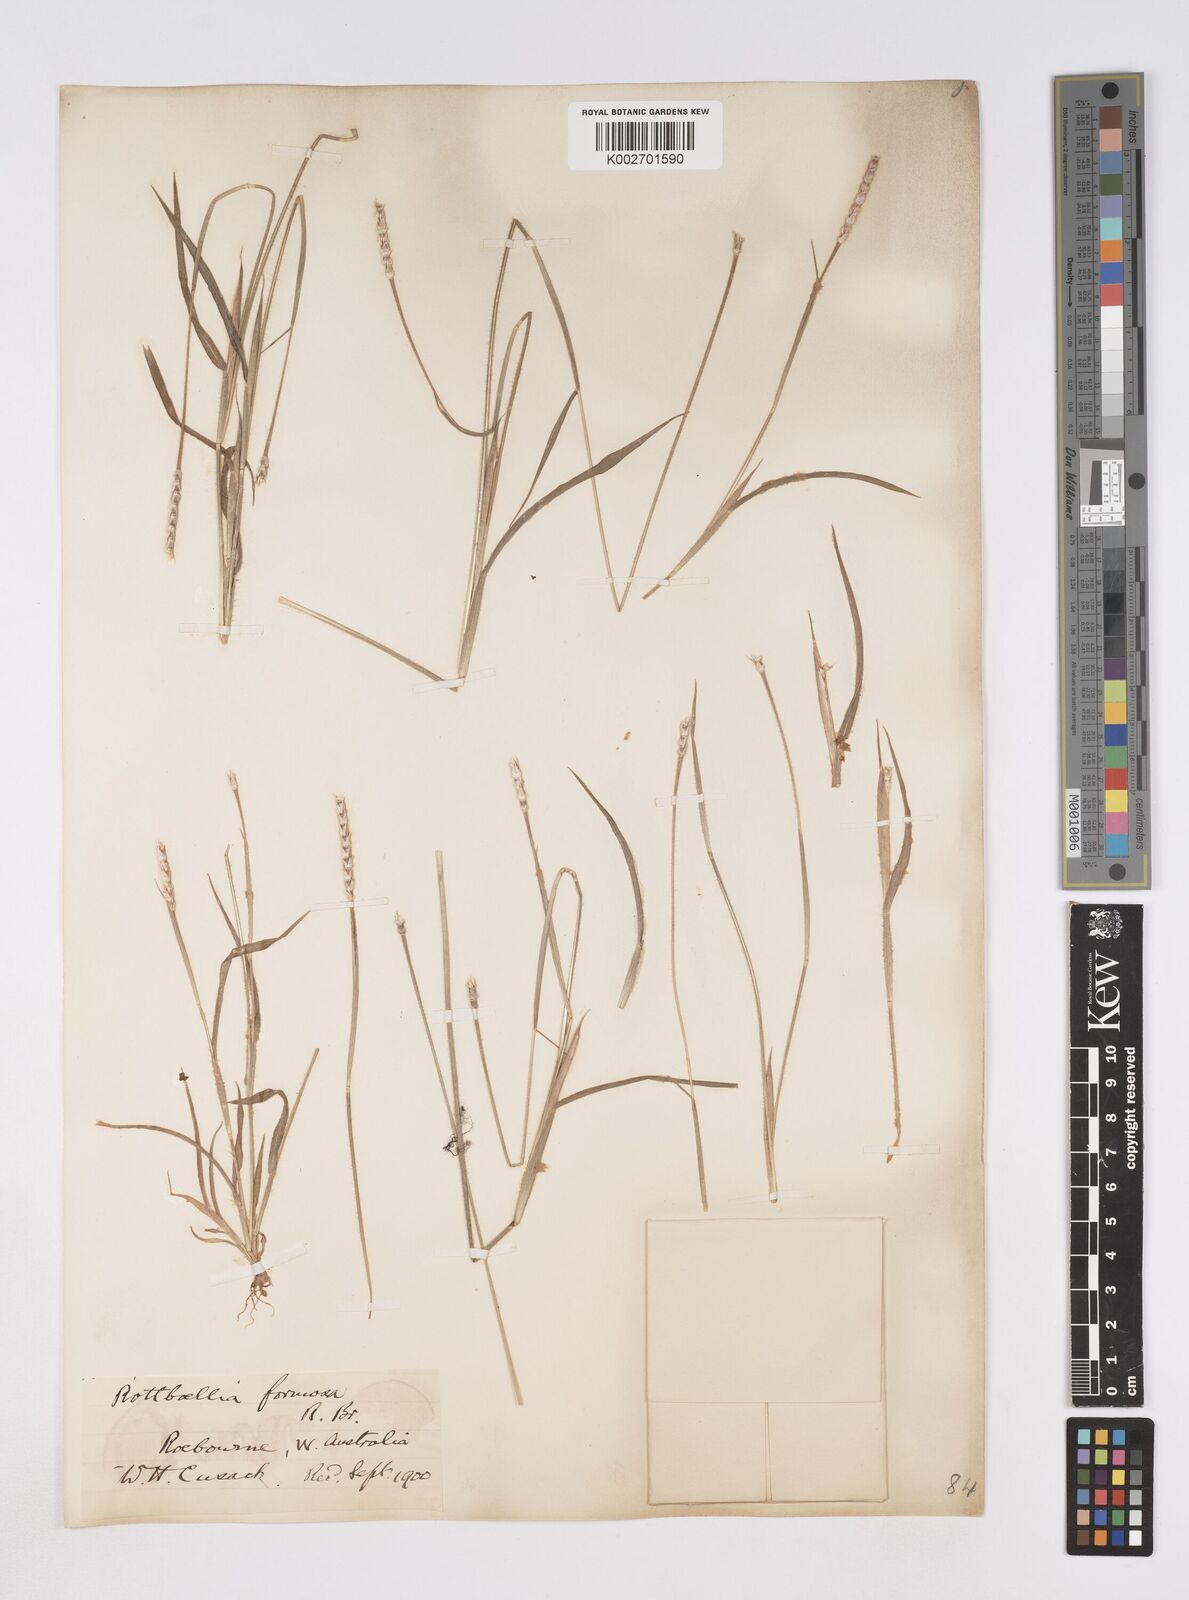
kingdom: Plantae
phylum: Tracheophyta
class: Liliopsida
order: Poales
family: Poaceae
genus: Heteropholis
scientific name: Heteropholis
